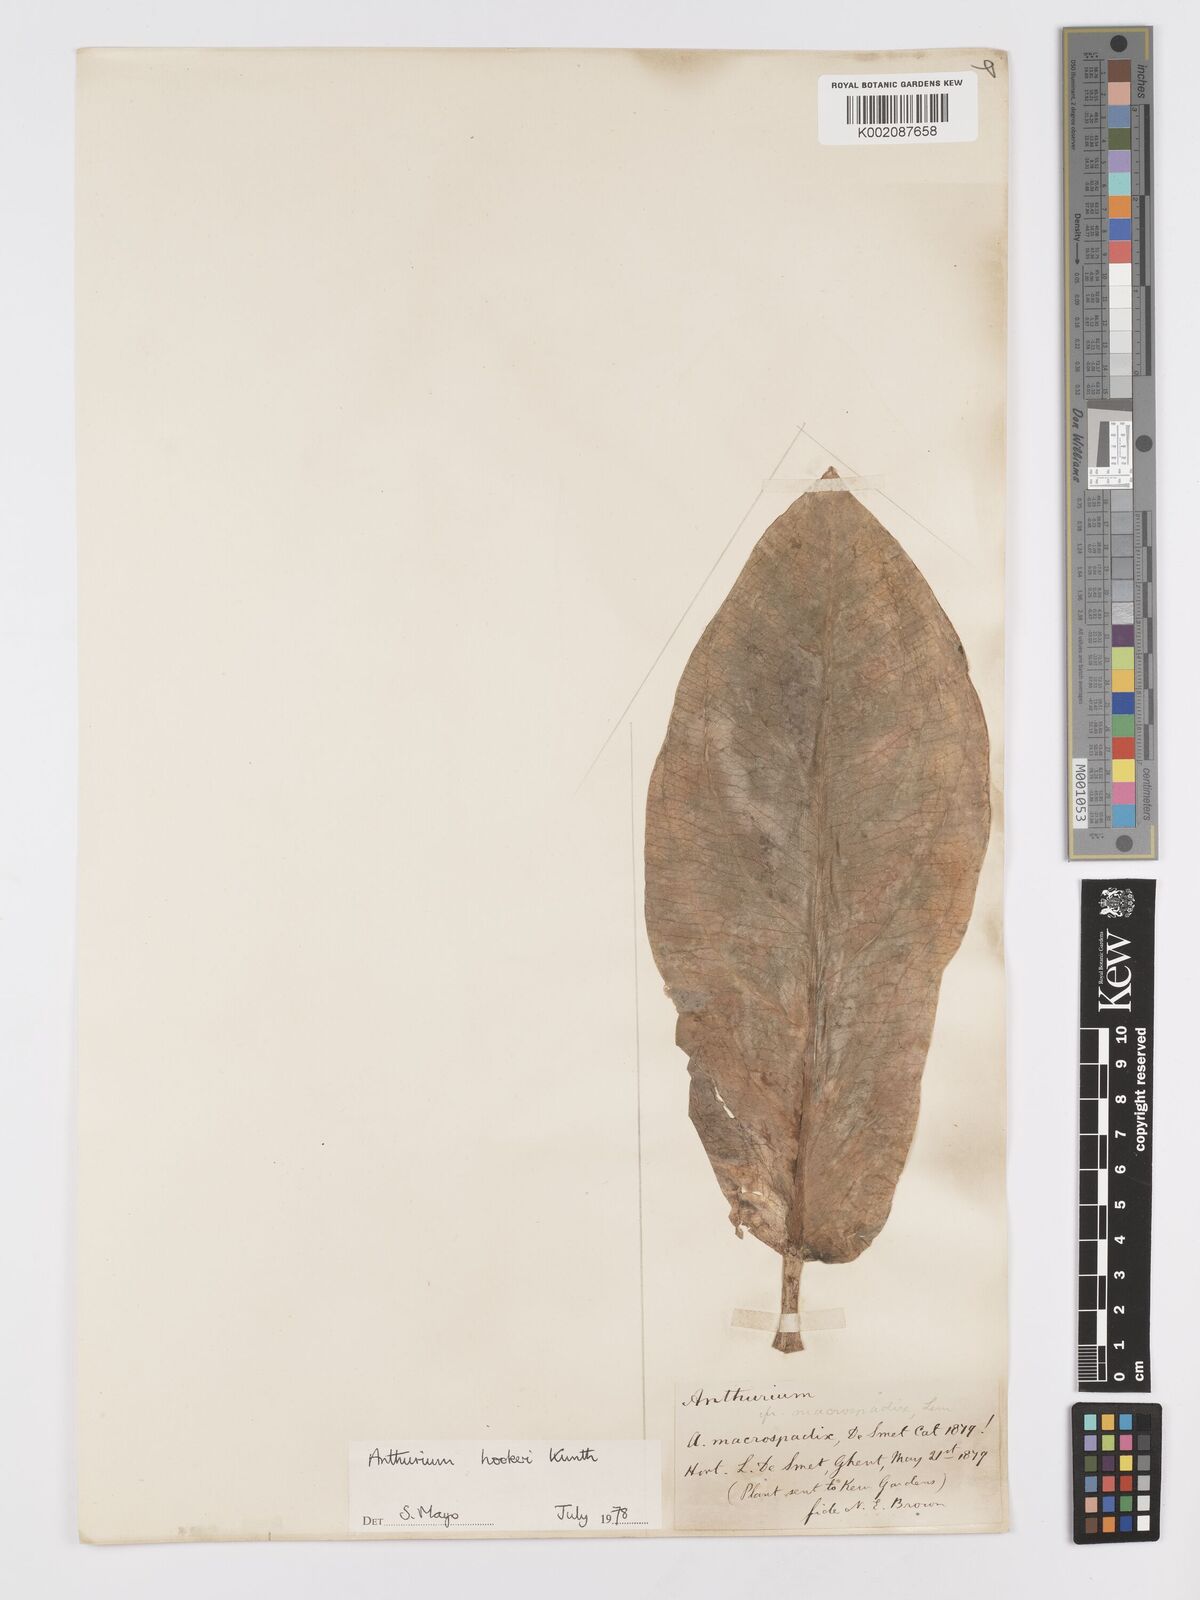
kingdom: Plantae
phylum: Tracheophyta
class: Liliopsida
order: Alismatales
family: Araceae
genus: Anthurium
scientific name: Anthurium hookeri
